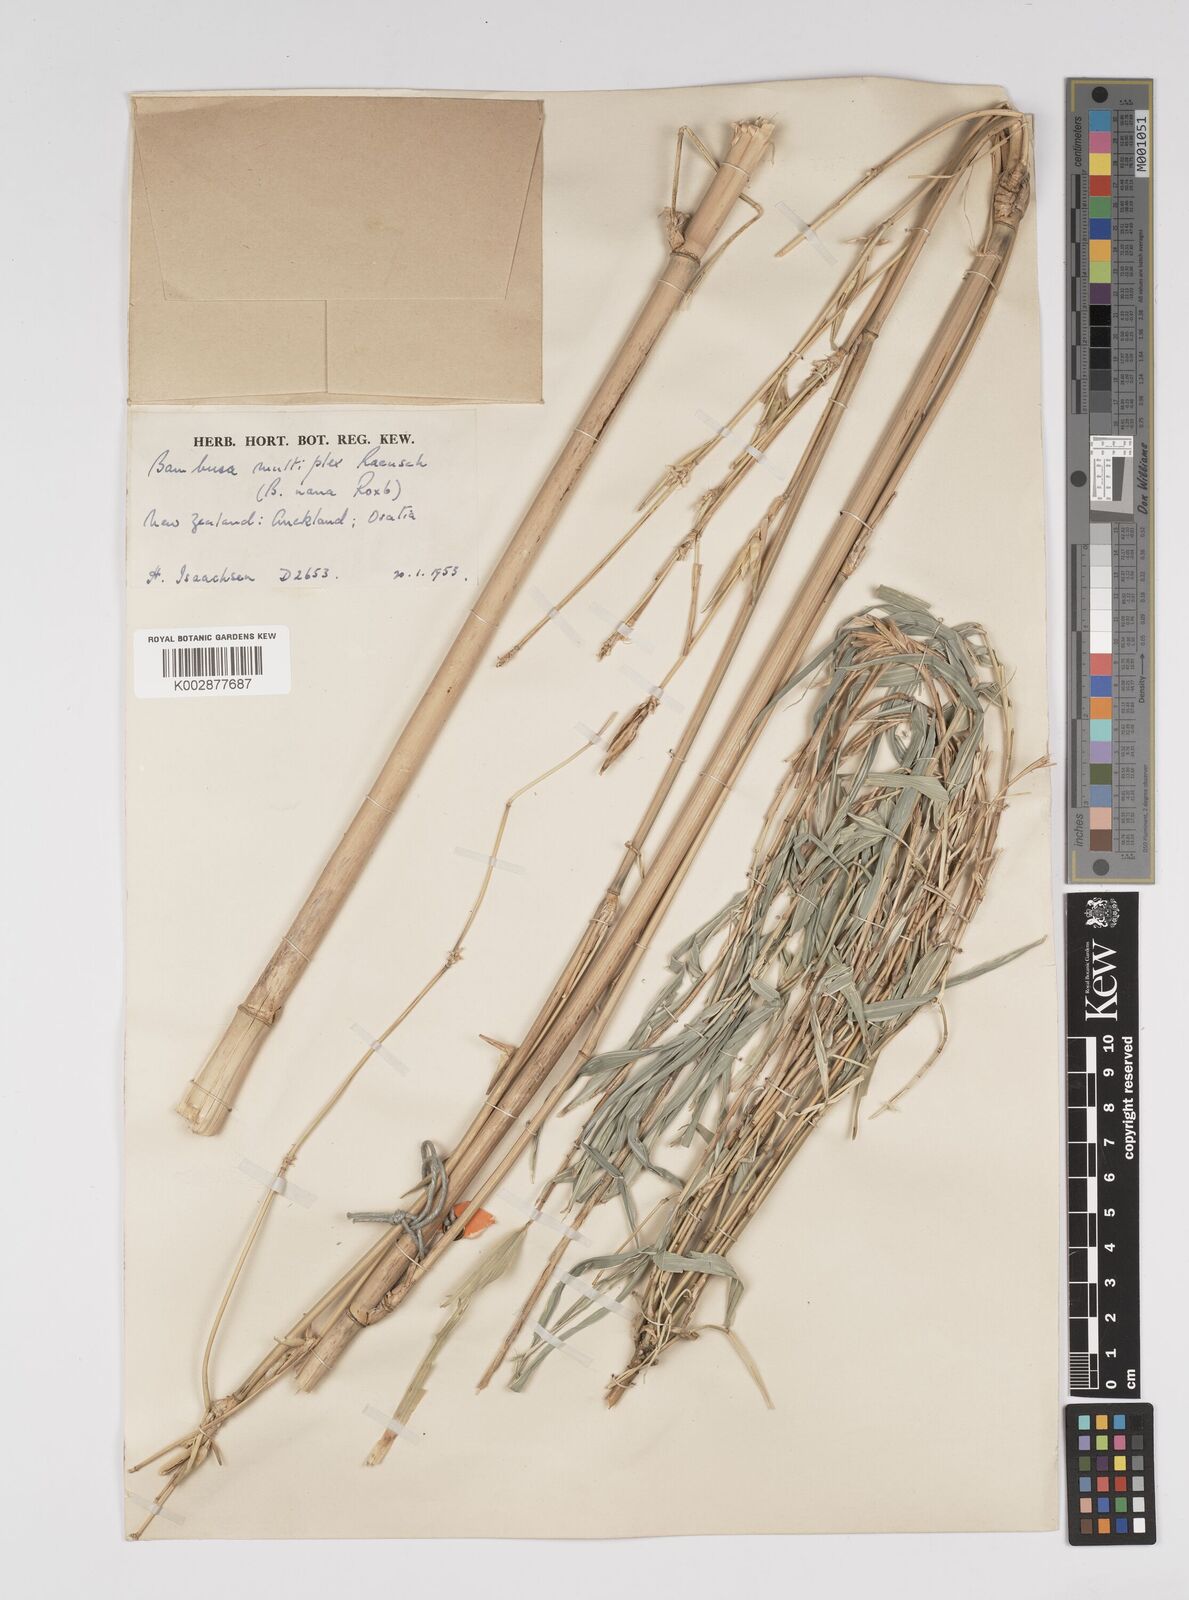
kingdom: Plantae
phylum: Tracheophyta
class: Liliopsida
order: Poales
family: Poaceae
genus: Bambusa
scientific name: Bambusa multiplex
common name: Hedge bamboo
